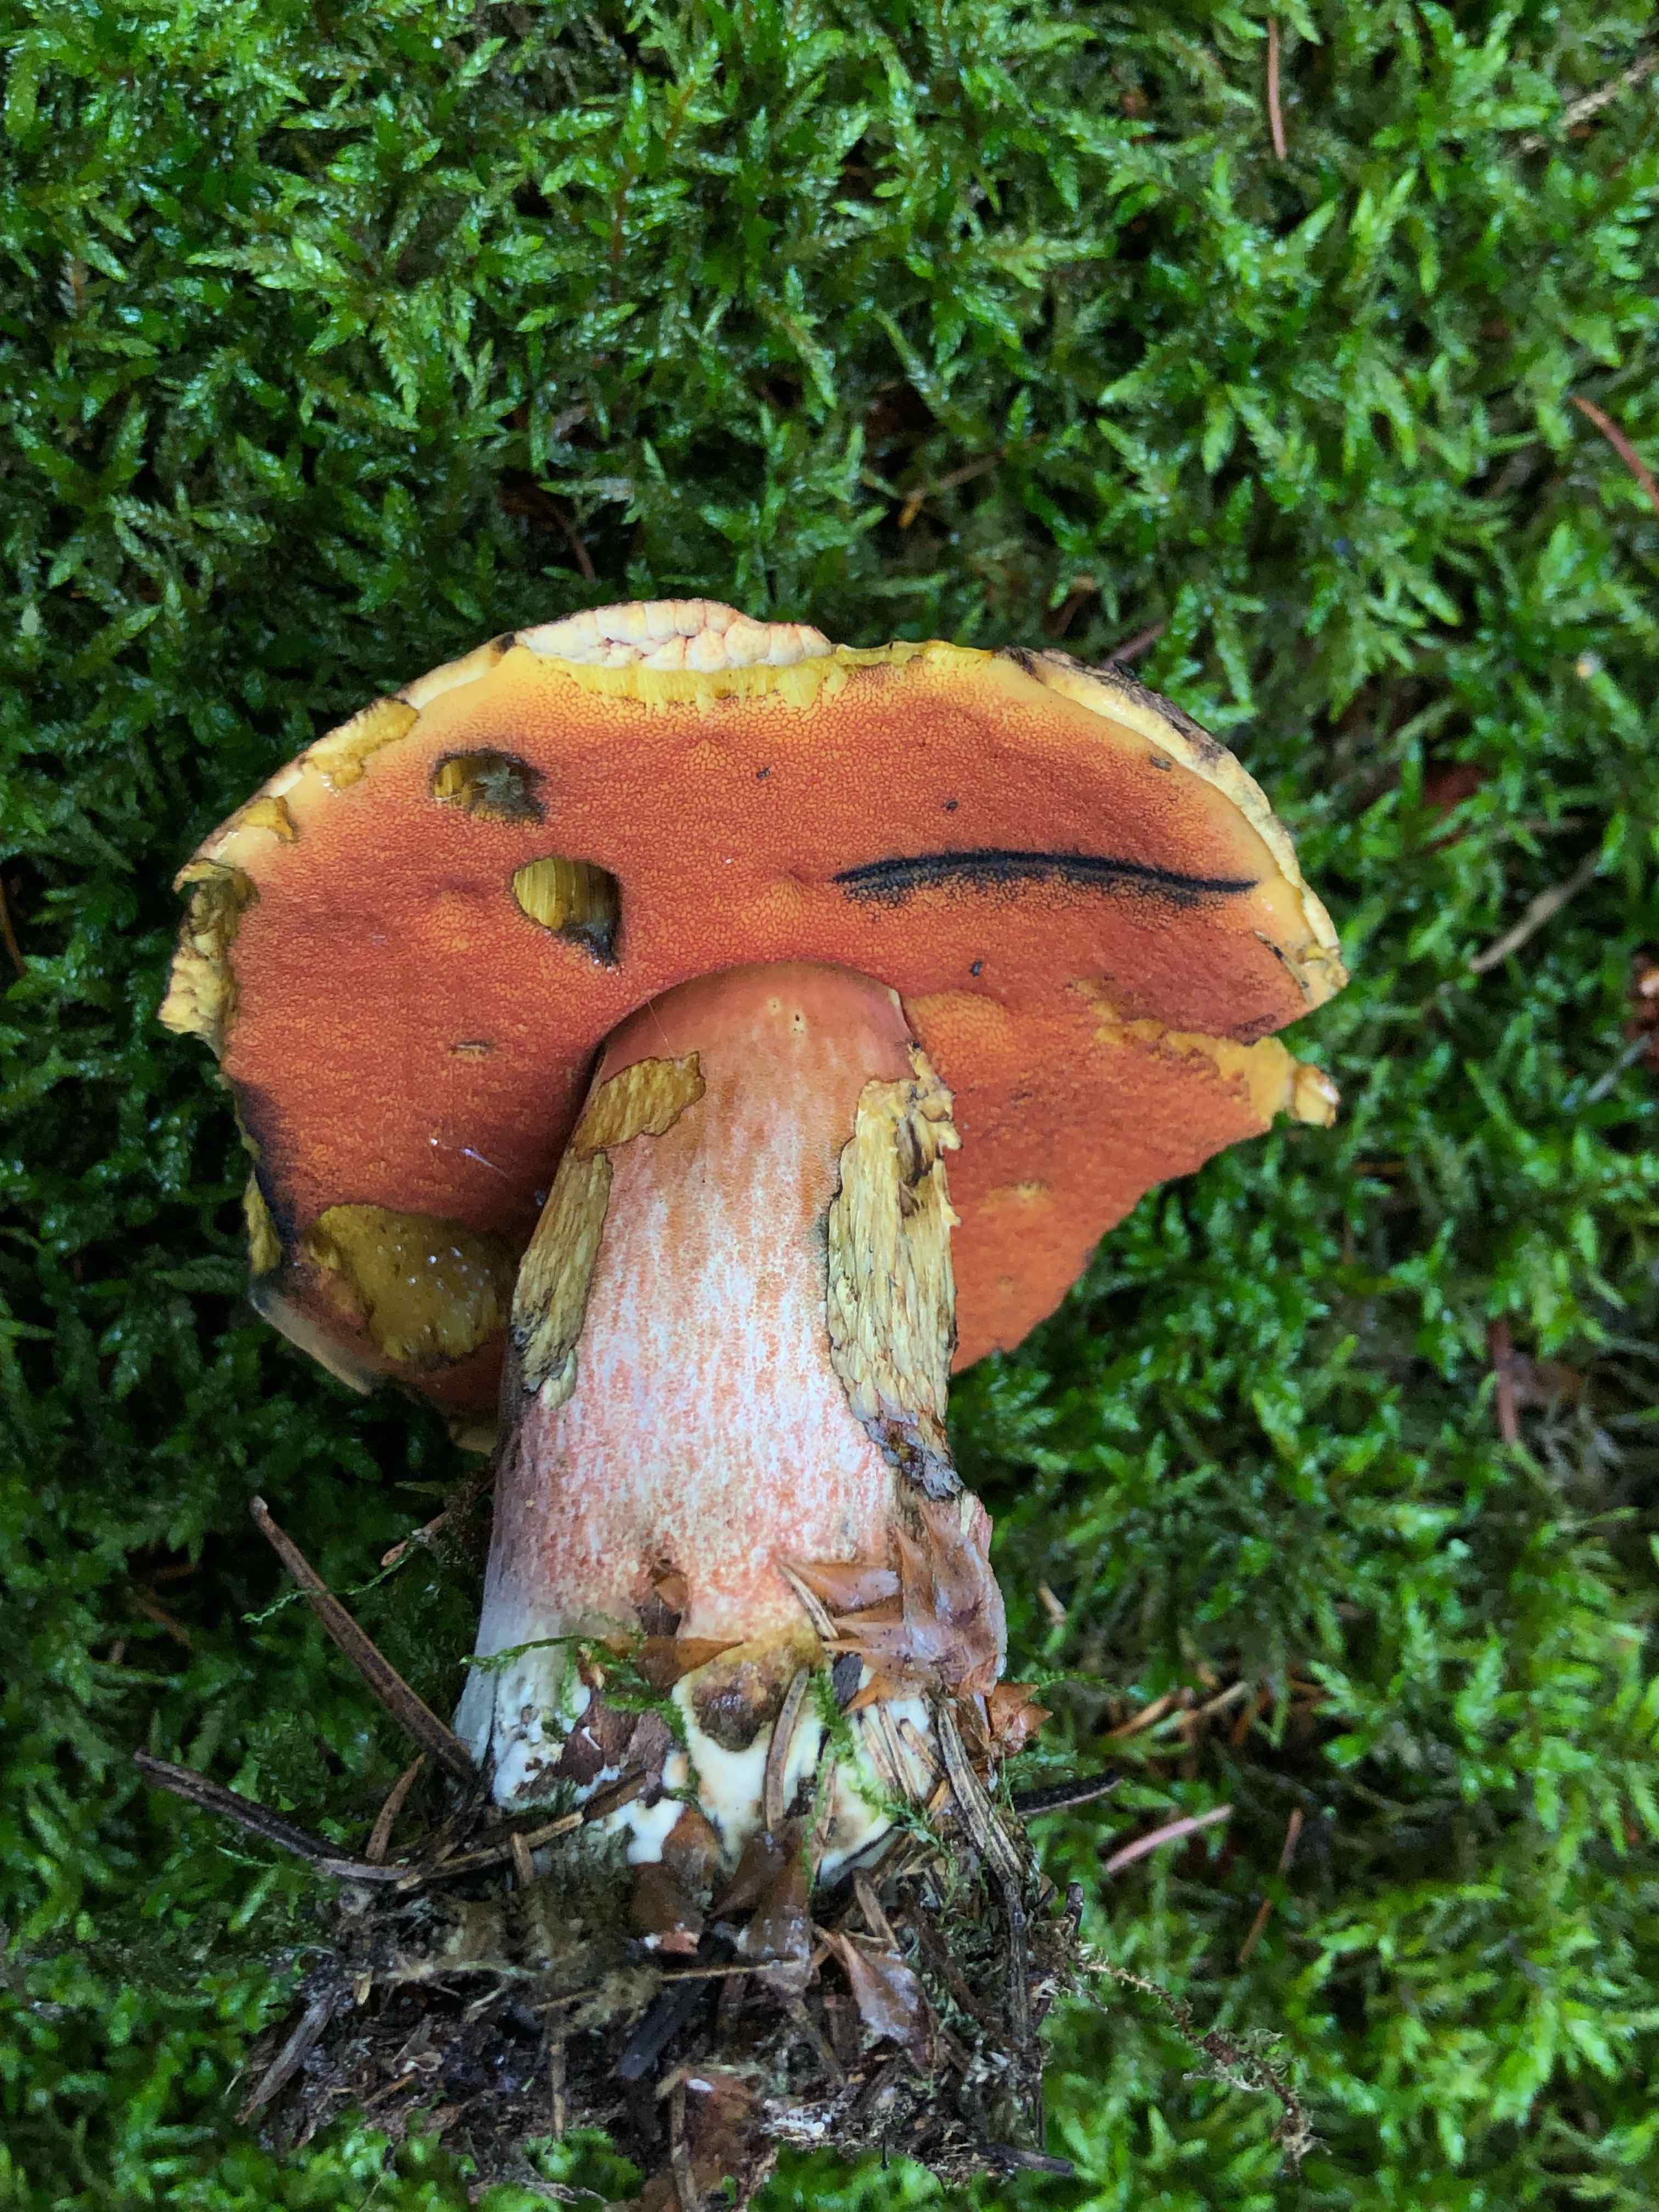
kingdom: Fungi
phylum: Basidiomycota
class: Agaricomycetes
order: Boletales
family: Boletaceae
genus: Neoboletus
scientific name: Neoboletus erythropus
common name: punktstokket indigorørhat
